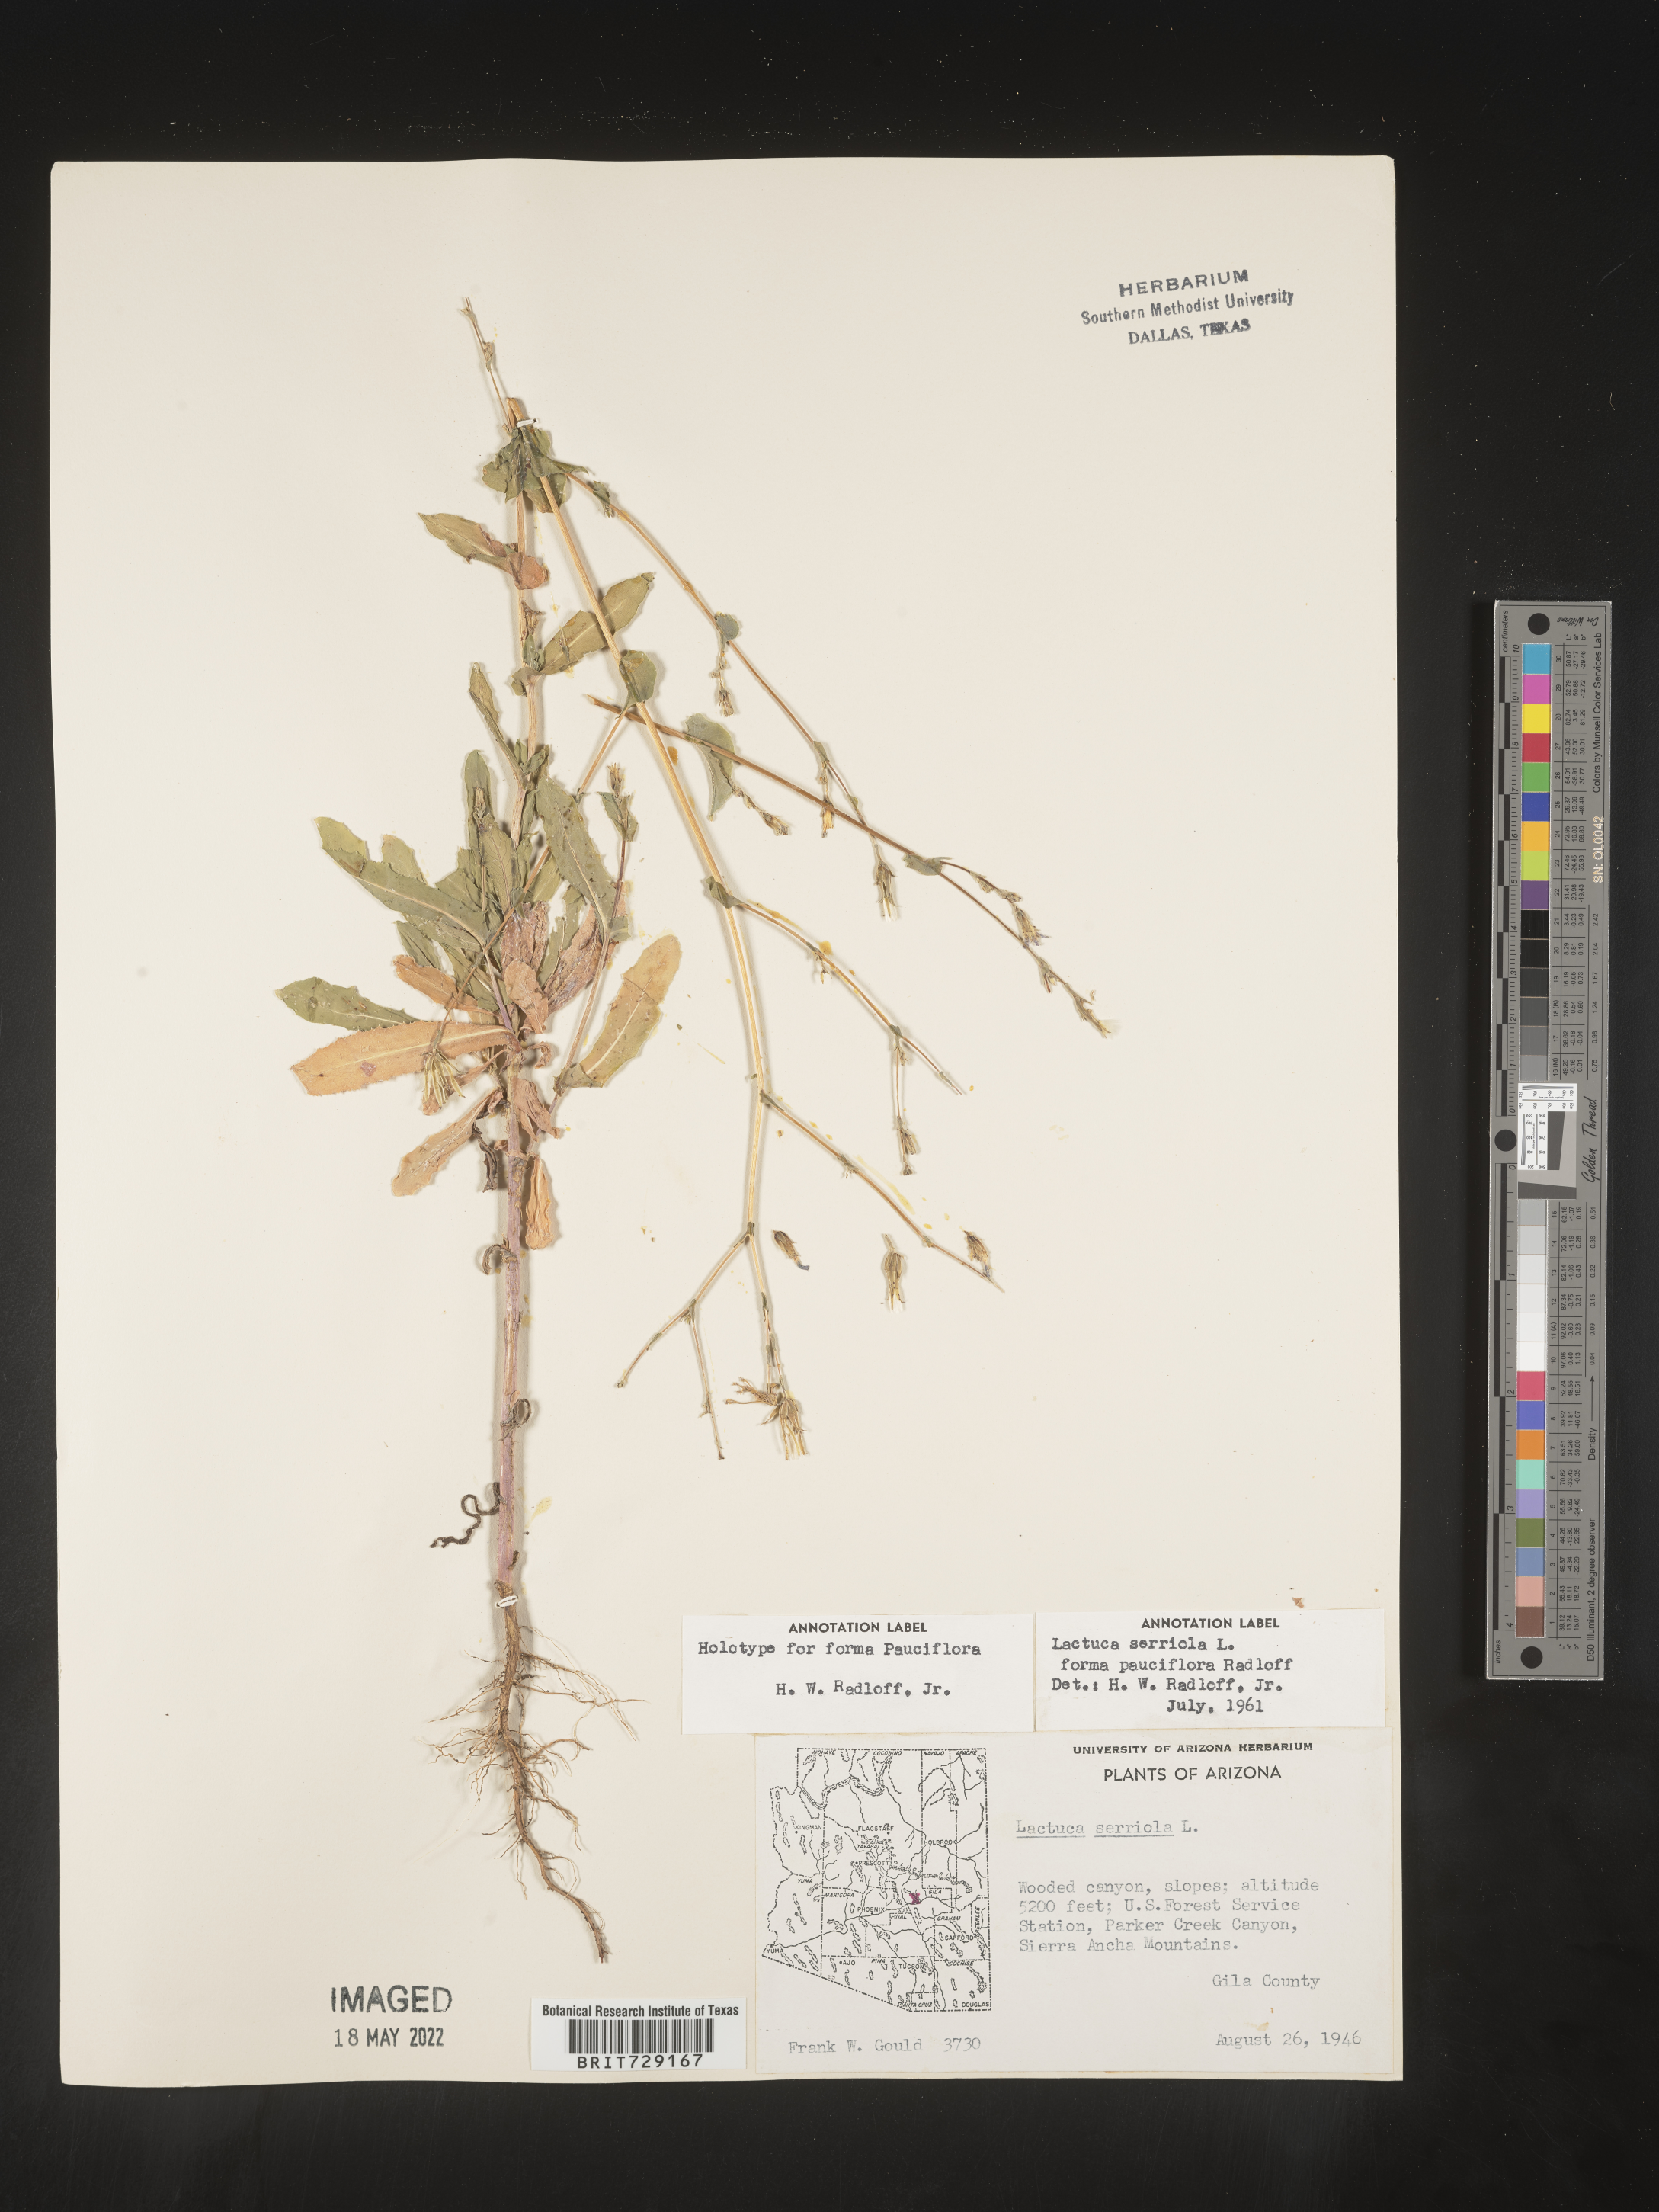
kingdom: Plantae
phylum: Tracheophyta
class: Magnoliopsida
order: Asterales
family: Asteraceae
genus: Lactuca
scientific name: Lactuca serriola
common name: Prickly lettuce
